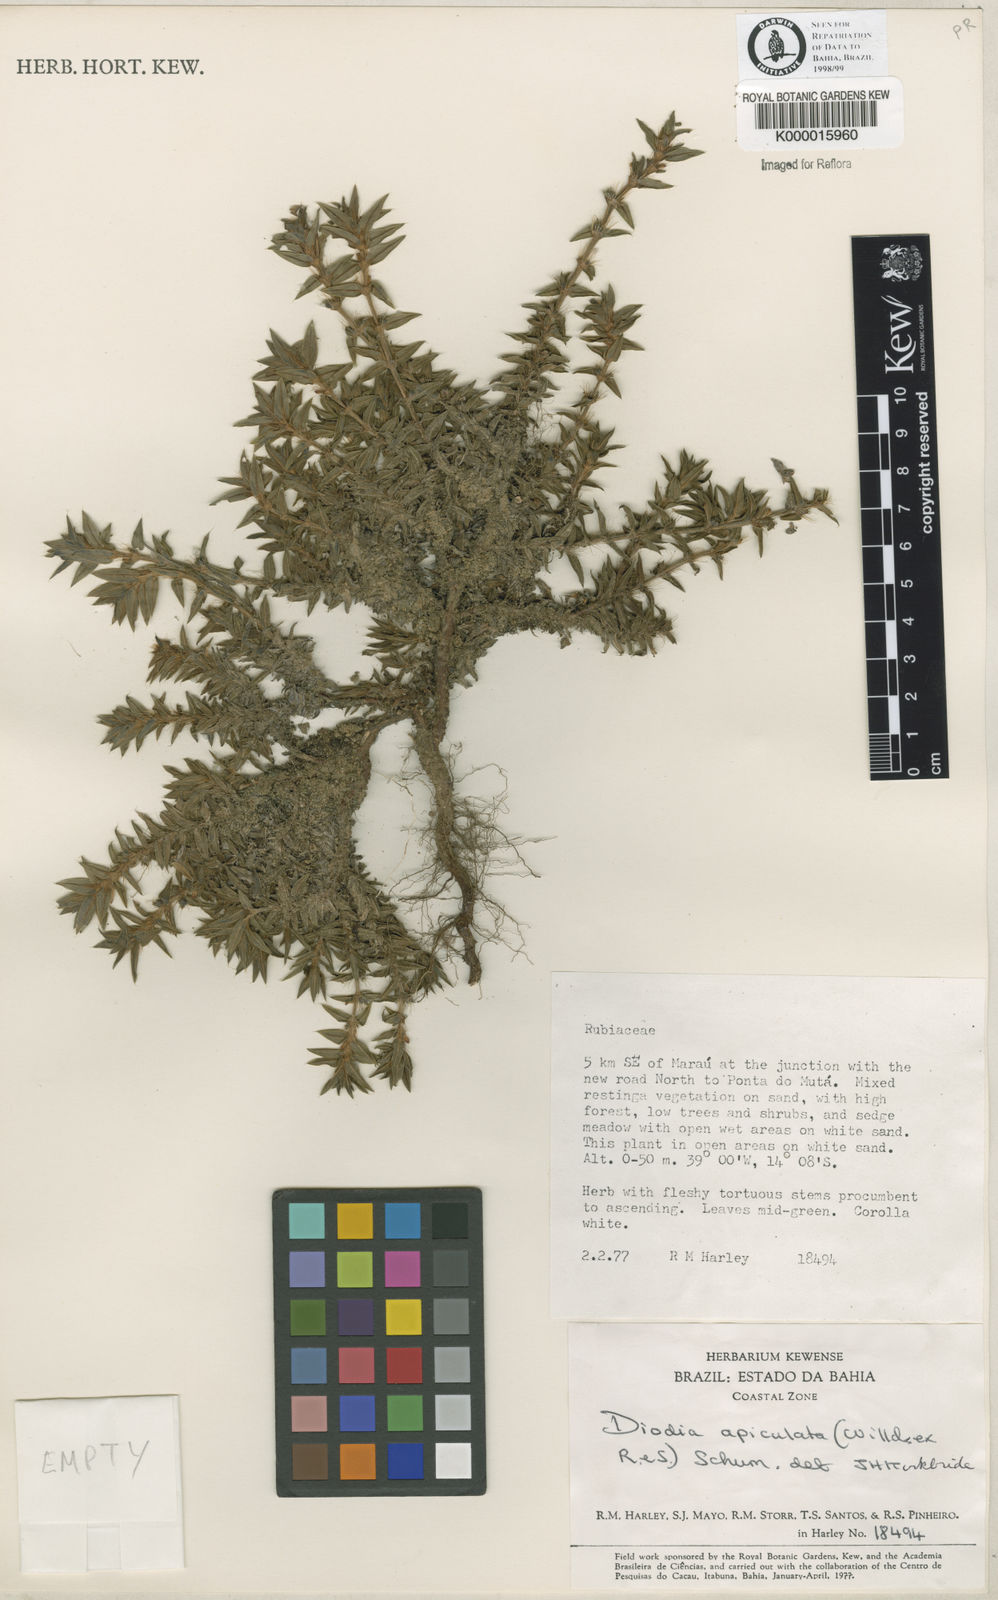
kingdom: Plantae
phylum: Tracheophyta
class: Magnoliopsida
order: Gentianales
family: Rubiaceae
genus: Hexasepalum
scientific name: Hexasepalum apiculatum
